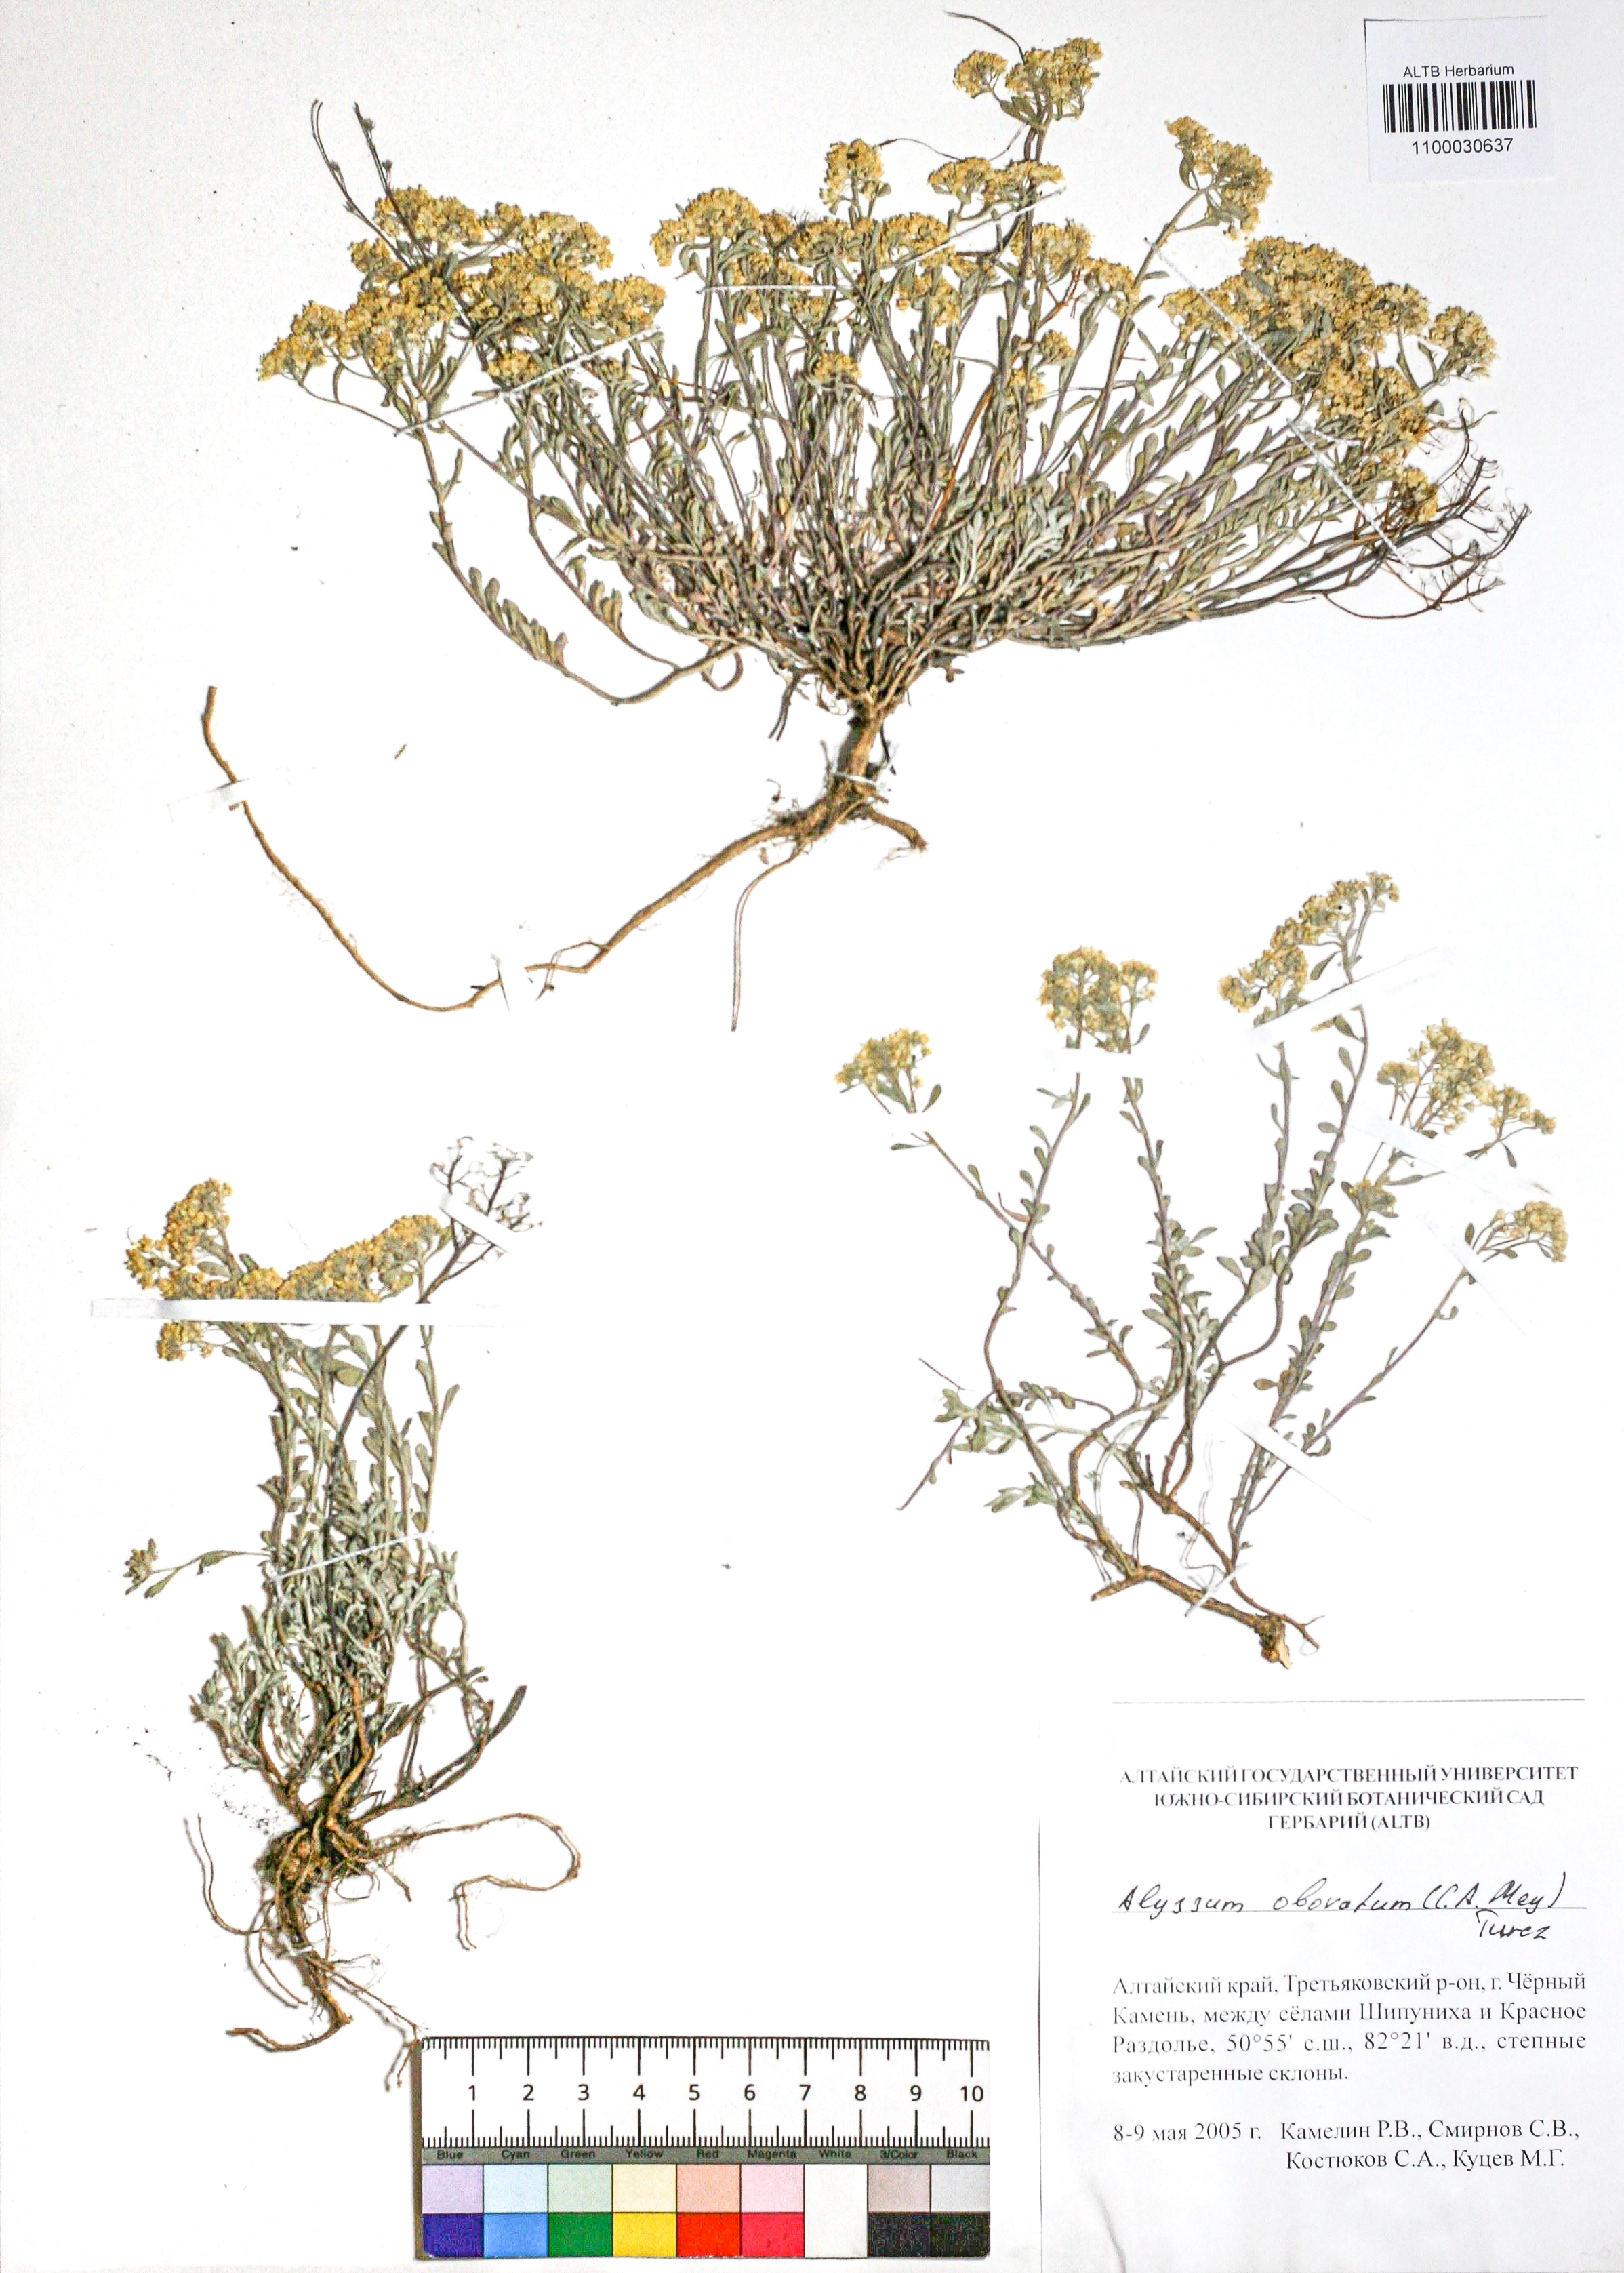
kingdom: Plantae
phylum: Tracheophyta
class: Magnoliopsida
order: Brassicales
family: Brassicaceae
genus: Odontarrhena
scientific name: Odontarrhena obovata
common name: American alyssum
